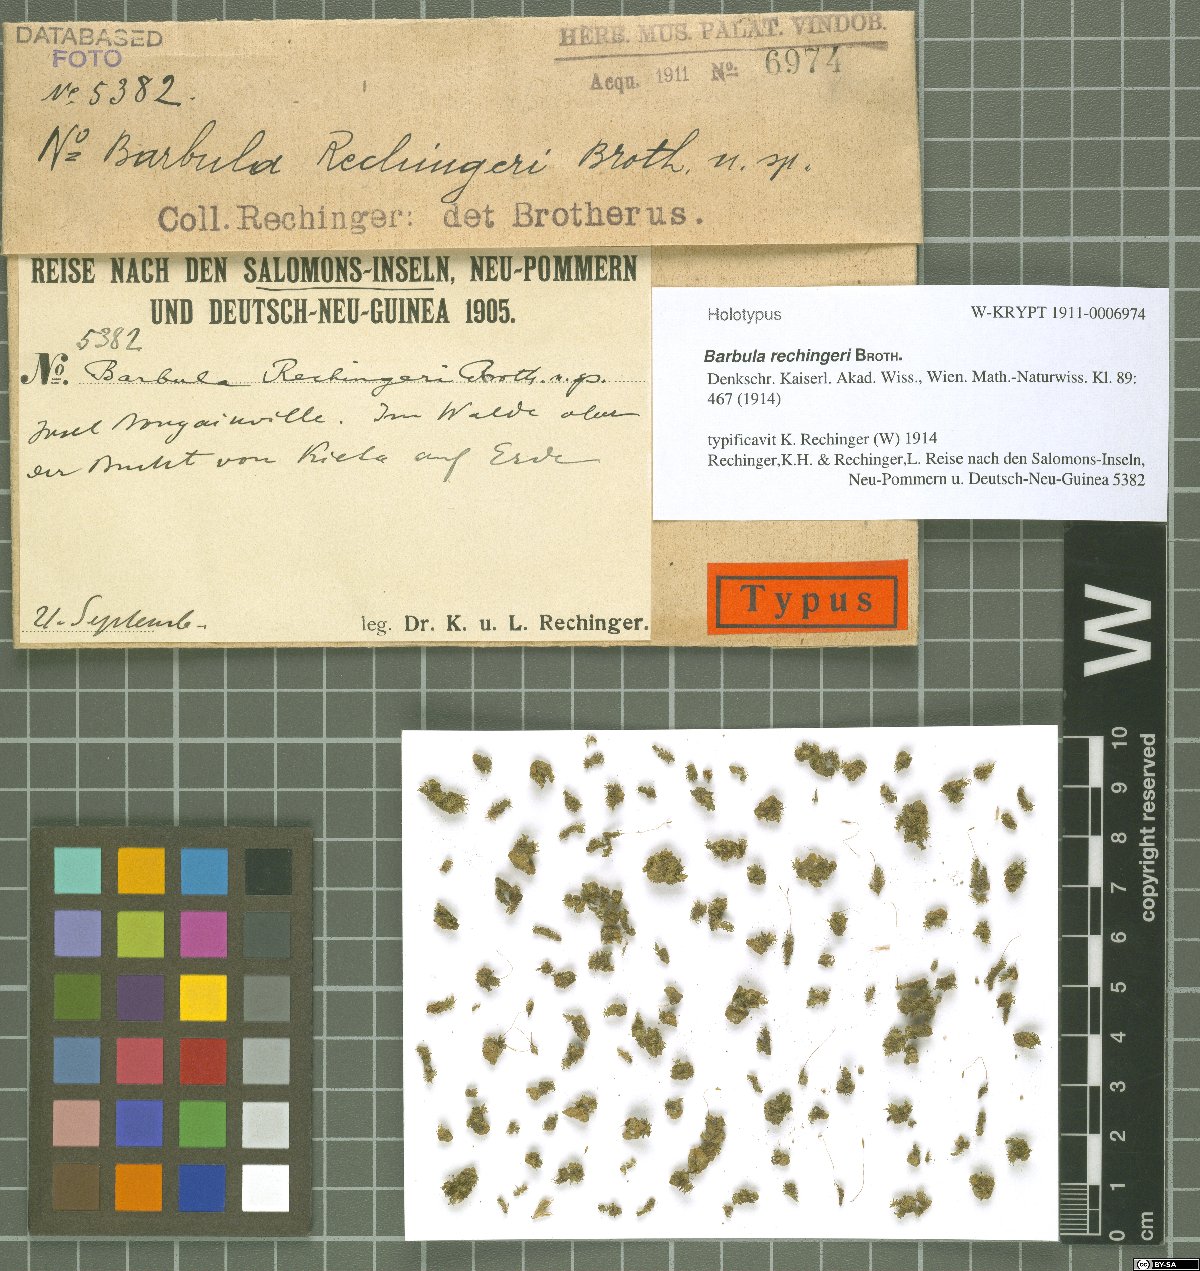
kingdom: Plantae
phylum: Bryophyta
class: Bryopsida
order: Pottiales
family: Pottiaceae
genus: Hydrogonium
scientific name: Hydrogonium rechingeri
